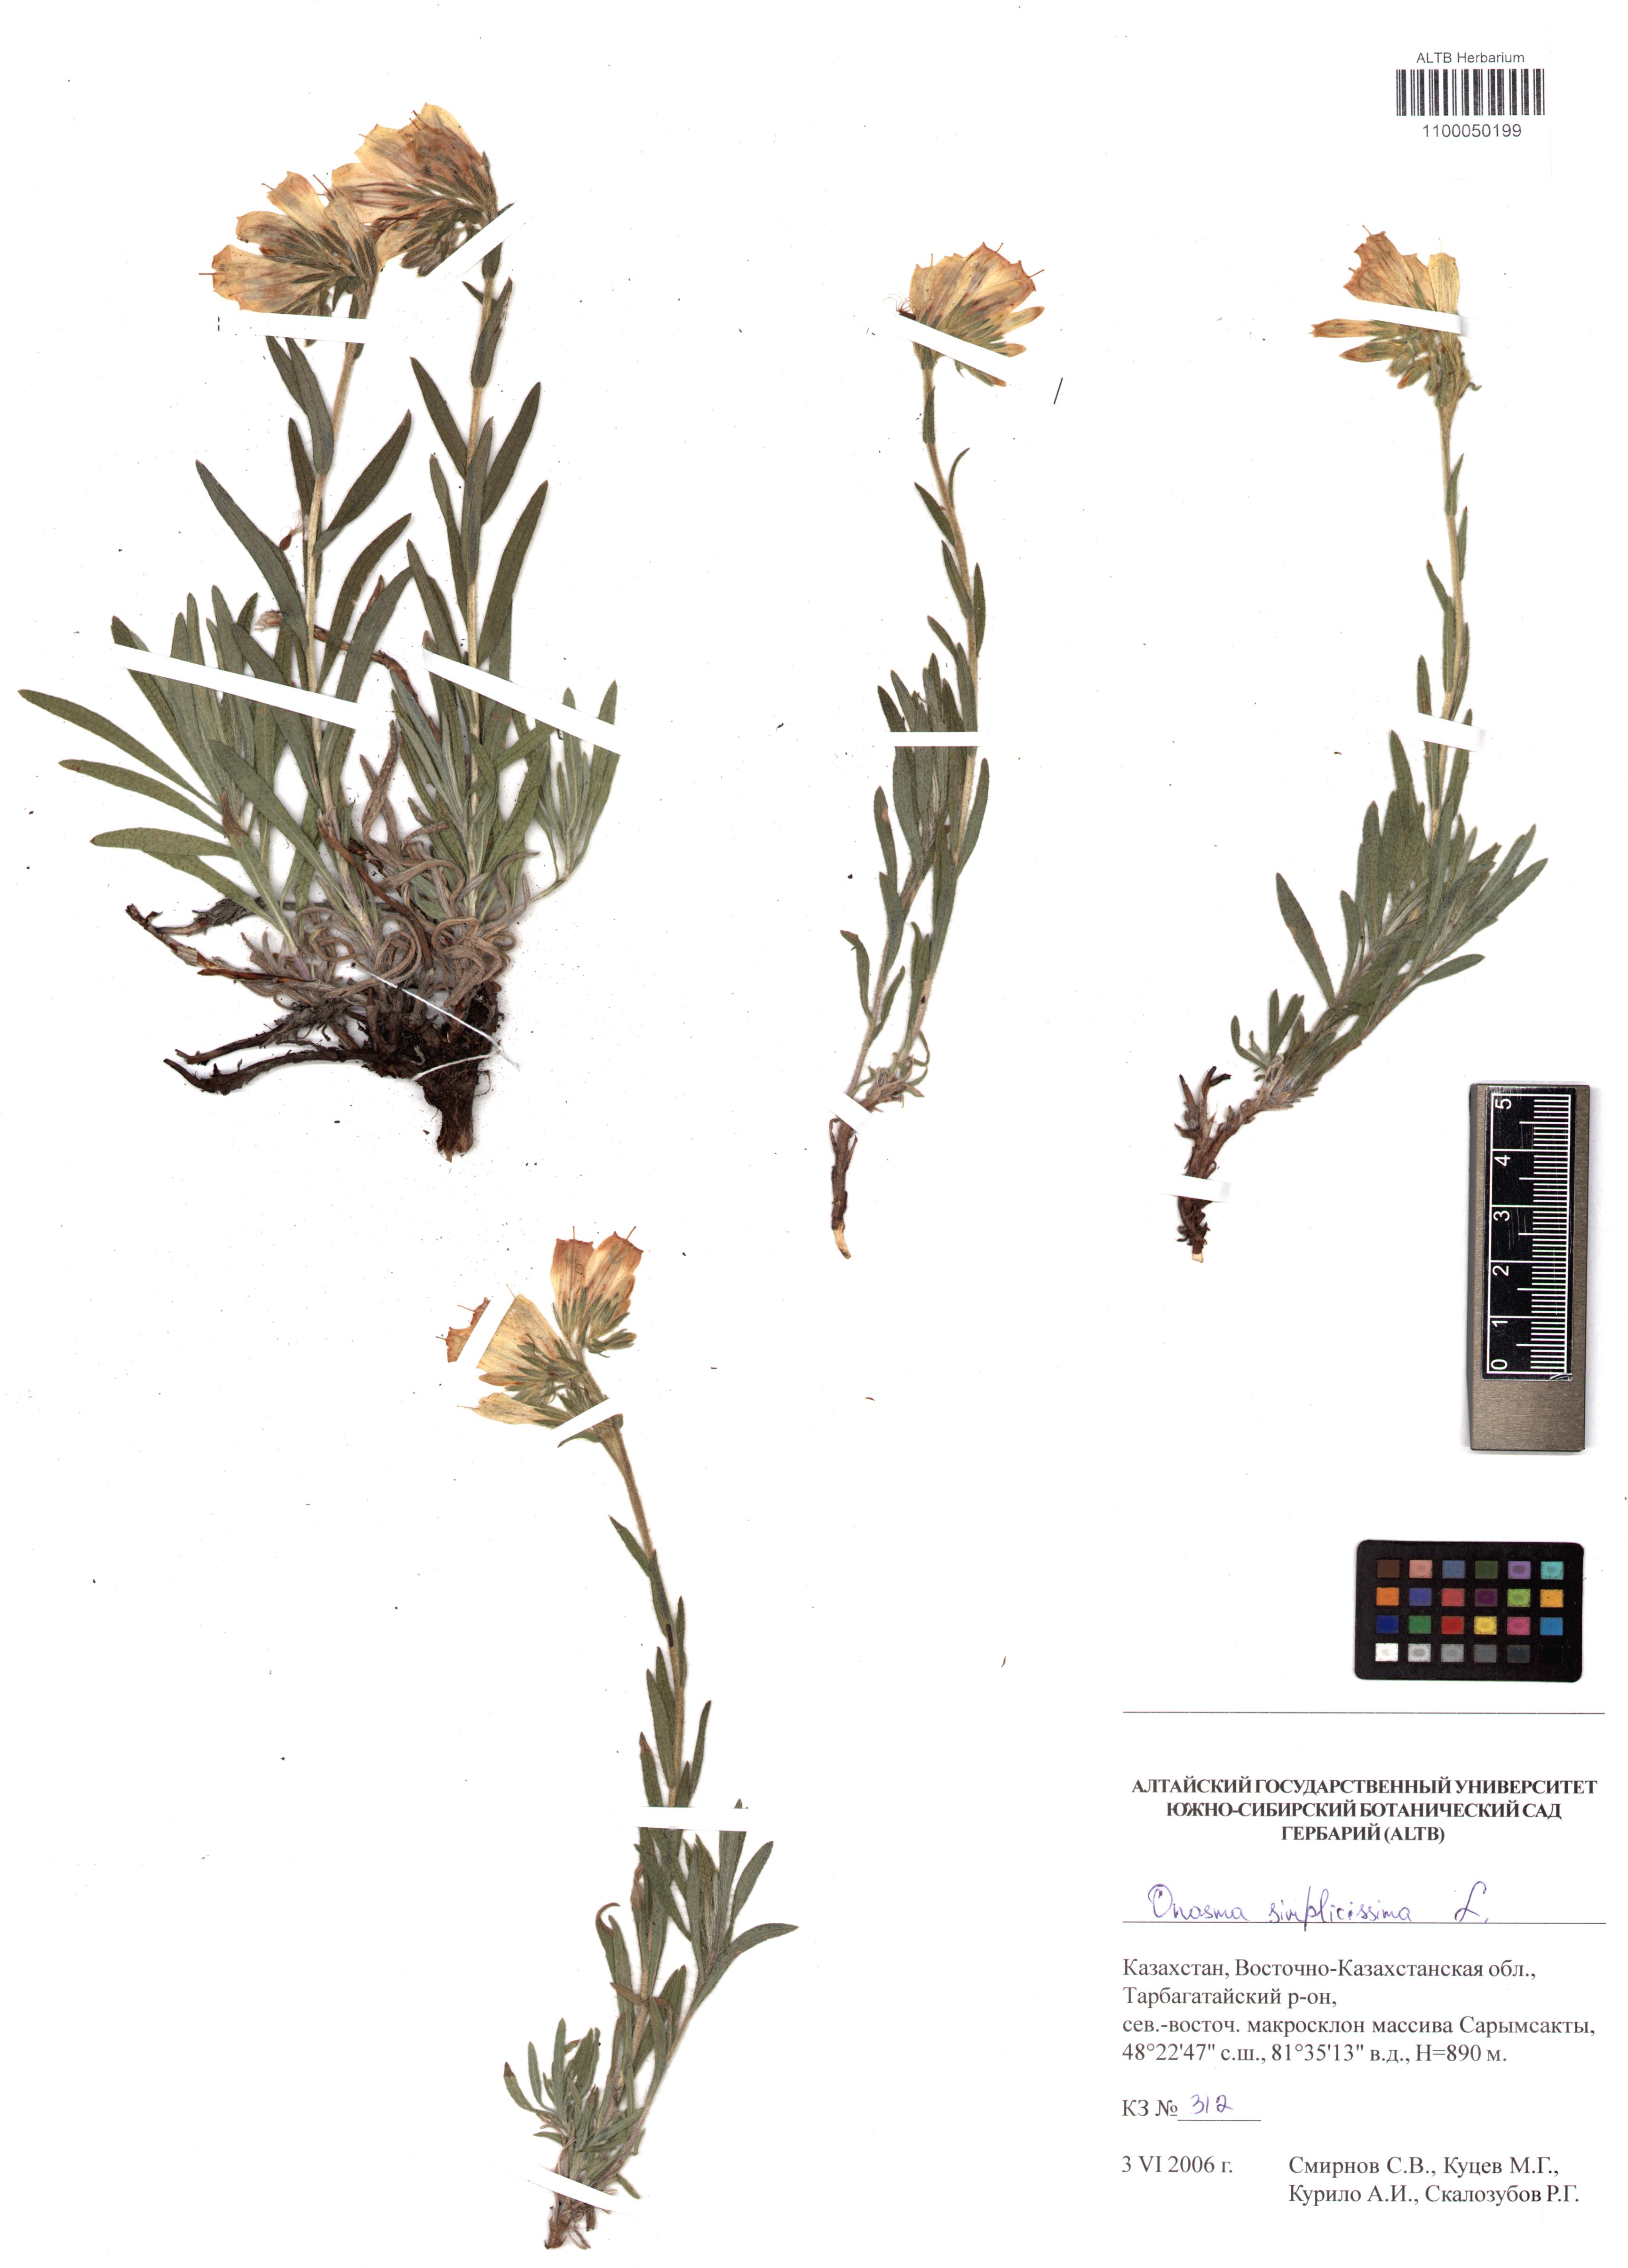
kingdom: Plantae
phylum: Tracheophyta
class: Magnoliopsida
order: Boraginales
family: Boraginaceae
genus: Onosma
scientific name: Onosma simplicissima
